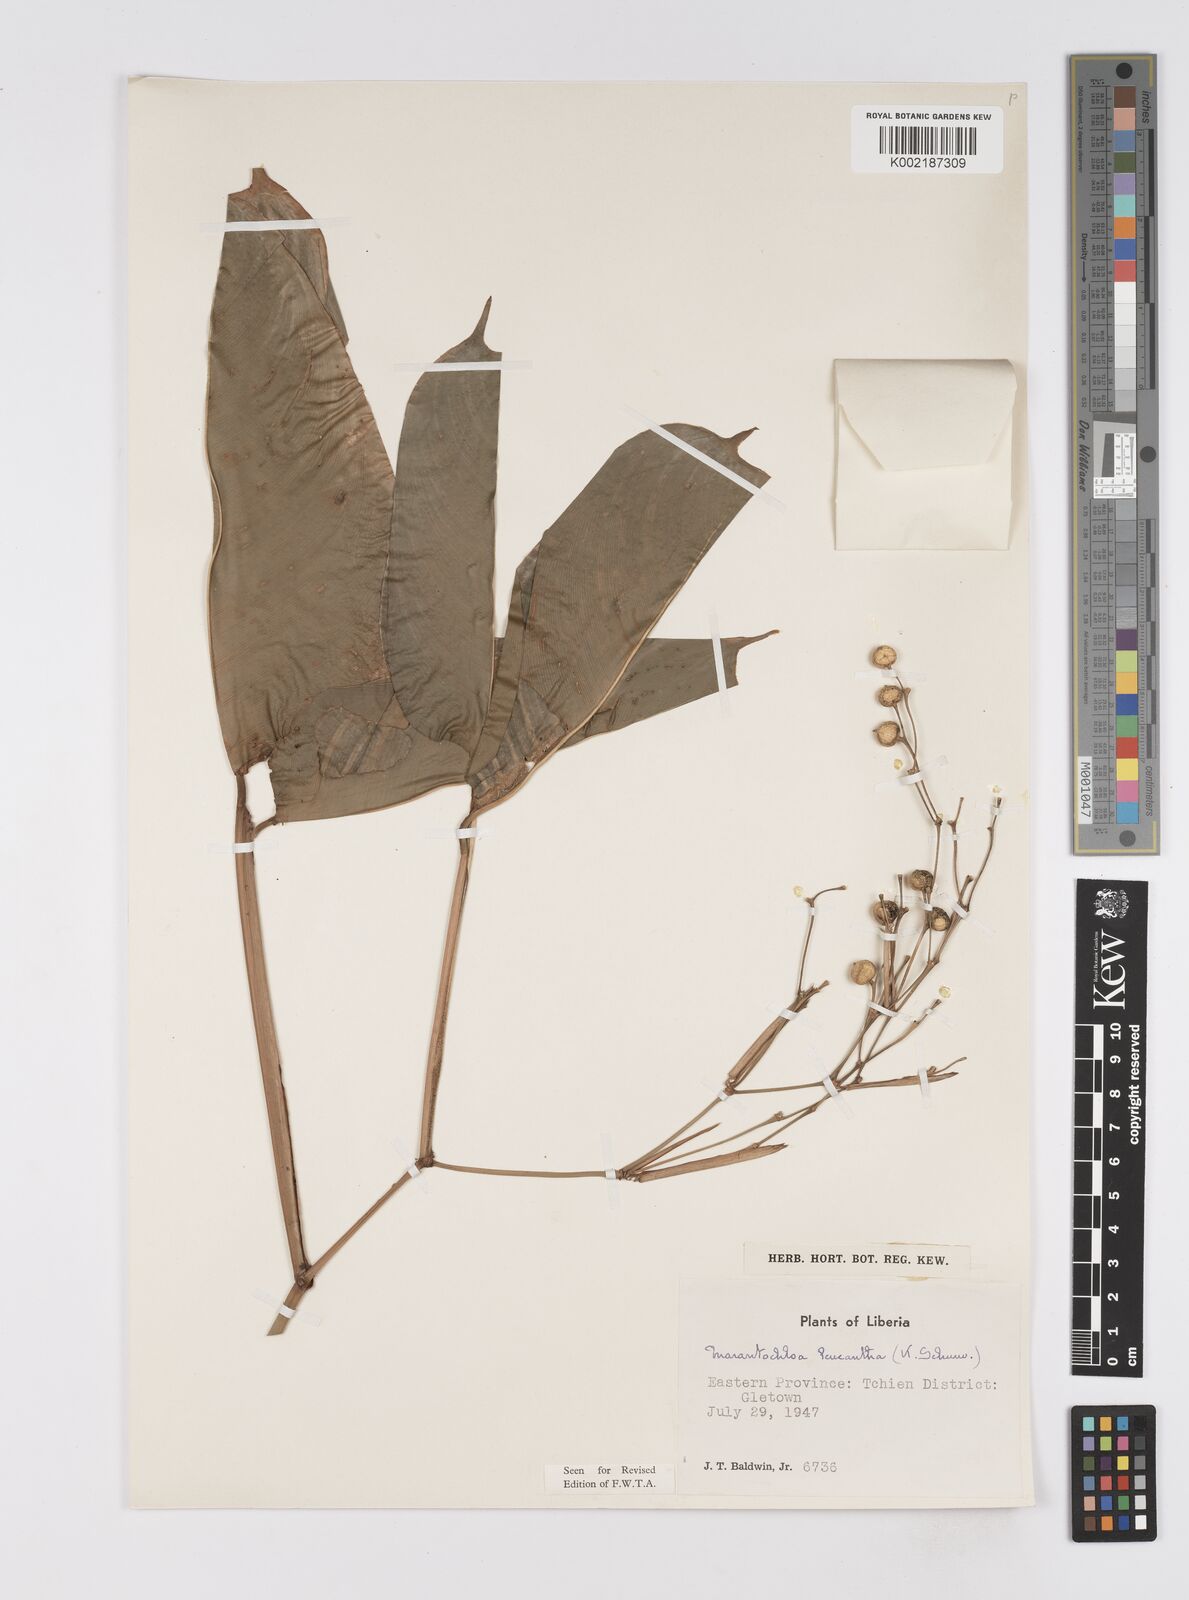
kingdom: Plantae
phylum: Tracheophyta
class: Liliopsida
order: Zingiberales
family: Marantaceae
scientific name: Marantaceae
